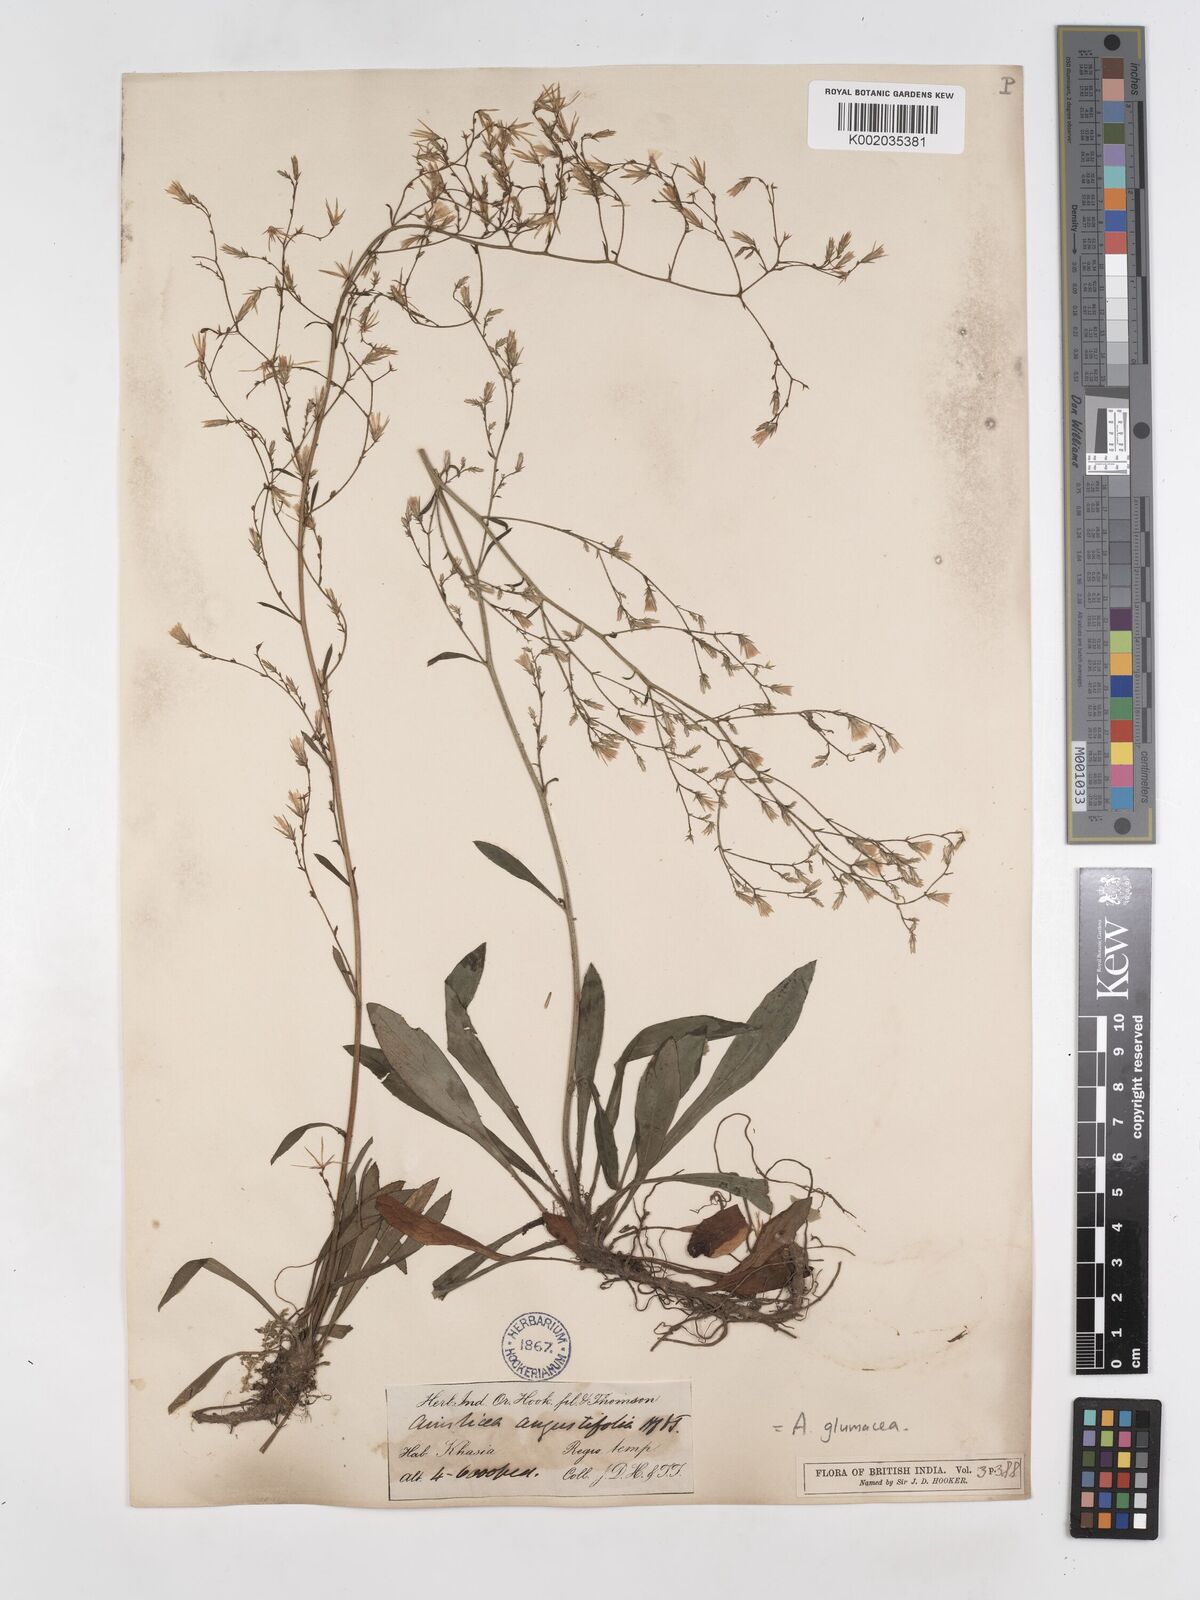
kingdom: Plantae
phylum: Tracheophyta
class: Magnoliopsida
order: Asterales
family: Asteraceae
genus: Ainsliaea
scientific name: Ainsliaea angustifolia
